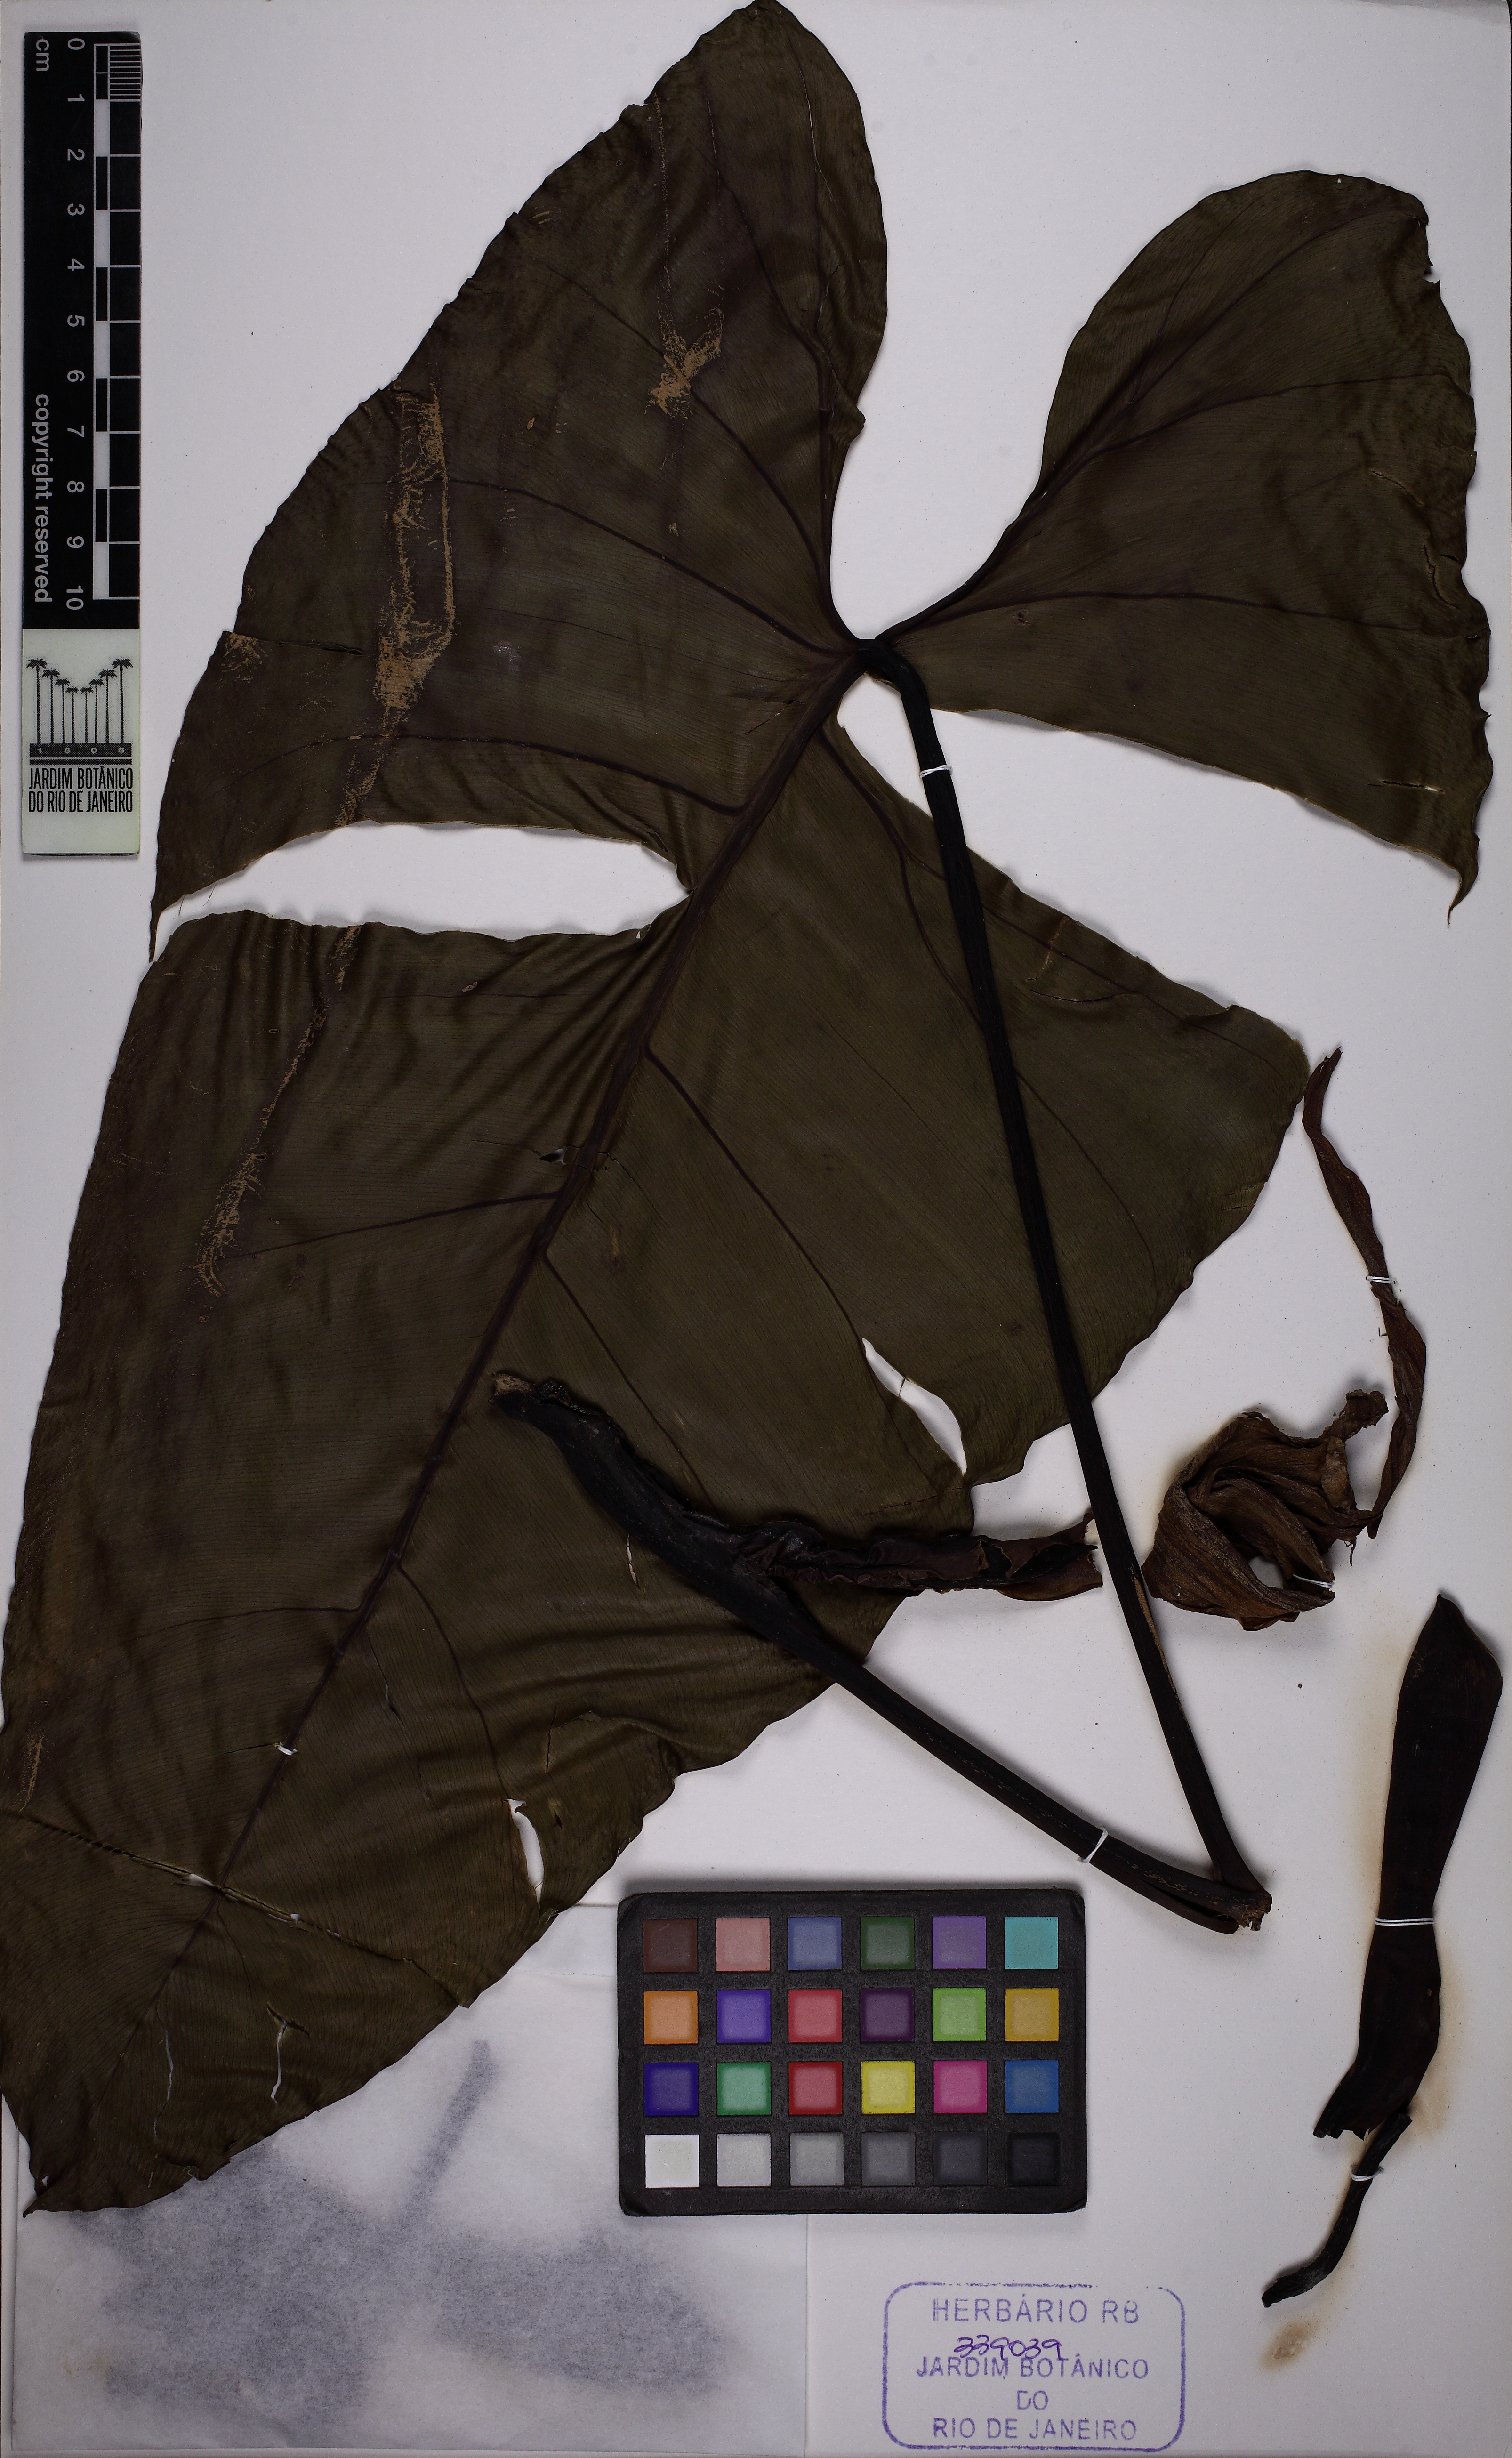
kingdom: Plantae
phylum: Tracheophyta
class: Liliopsida
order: Alismatales
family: Araceae
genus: Philodendron
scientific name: Philodendron roseopetiolatum
